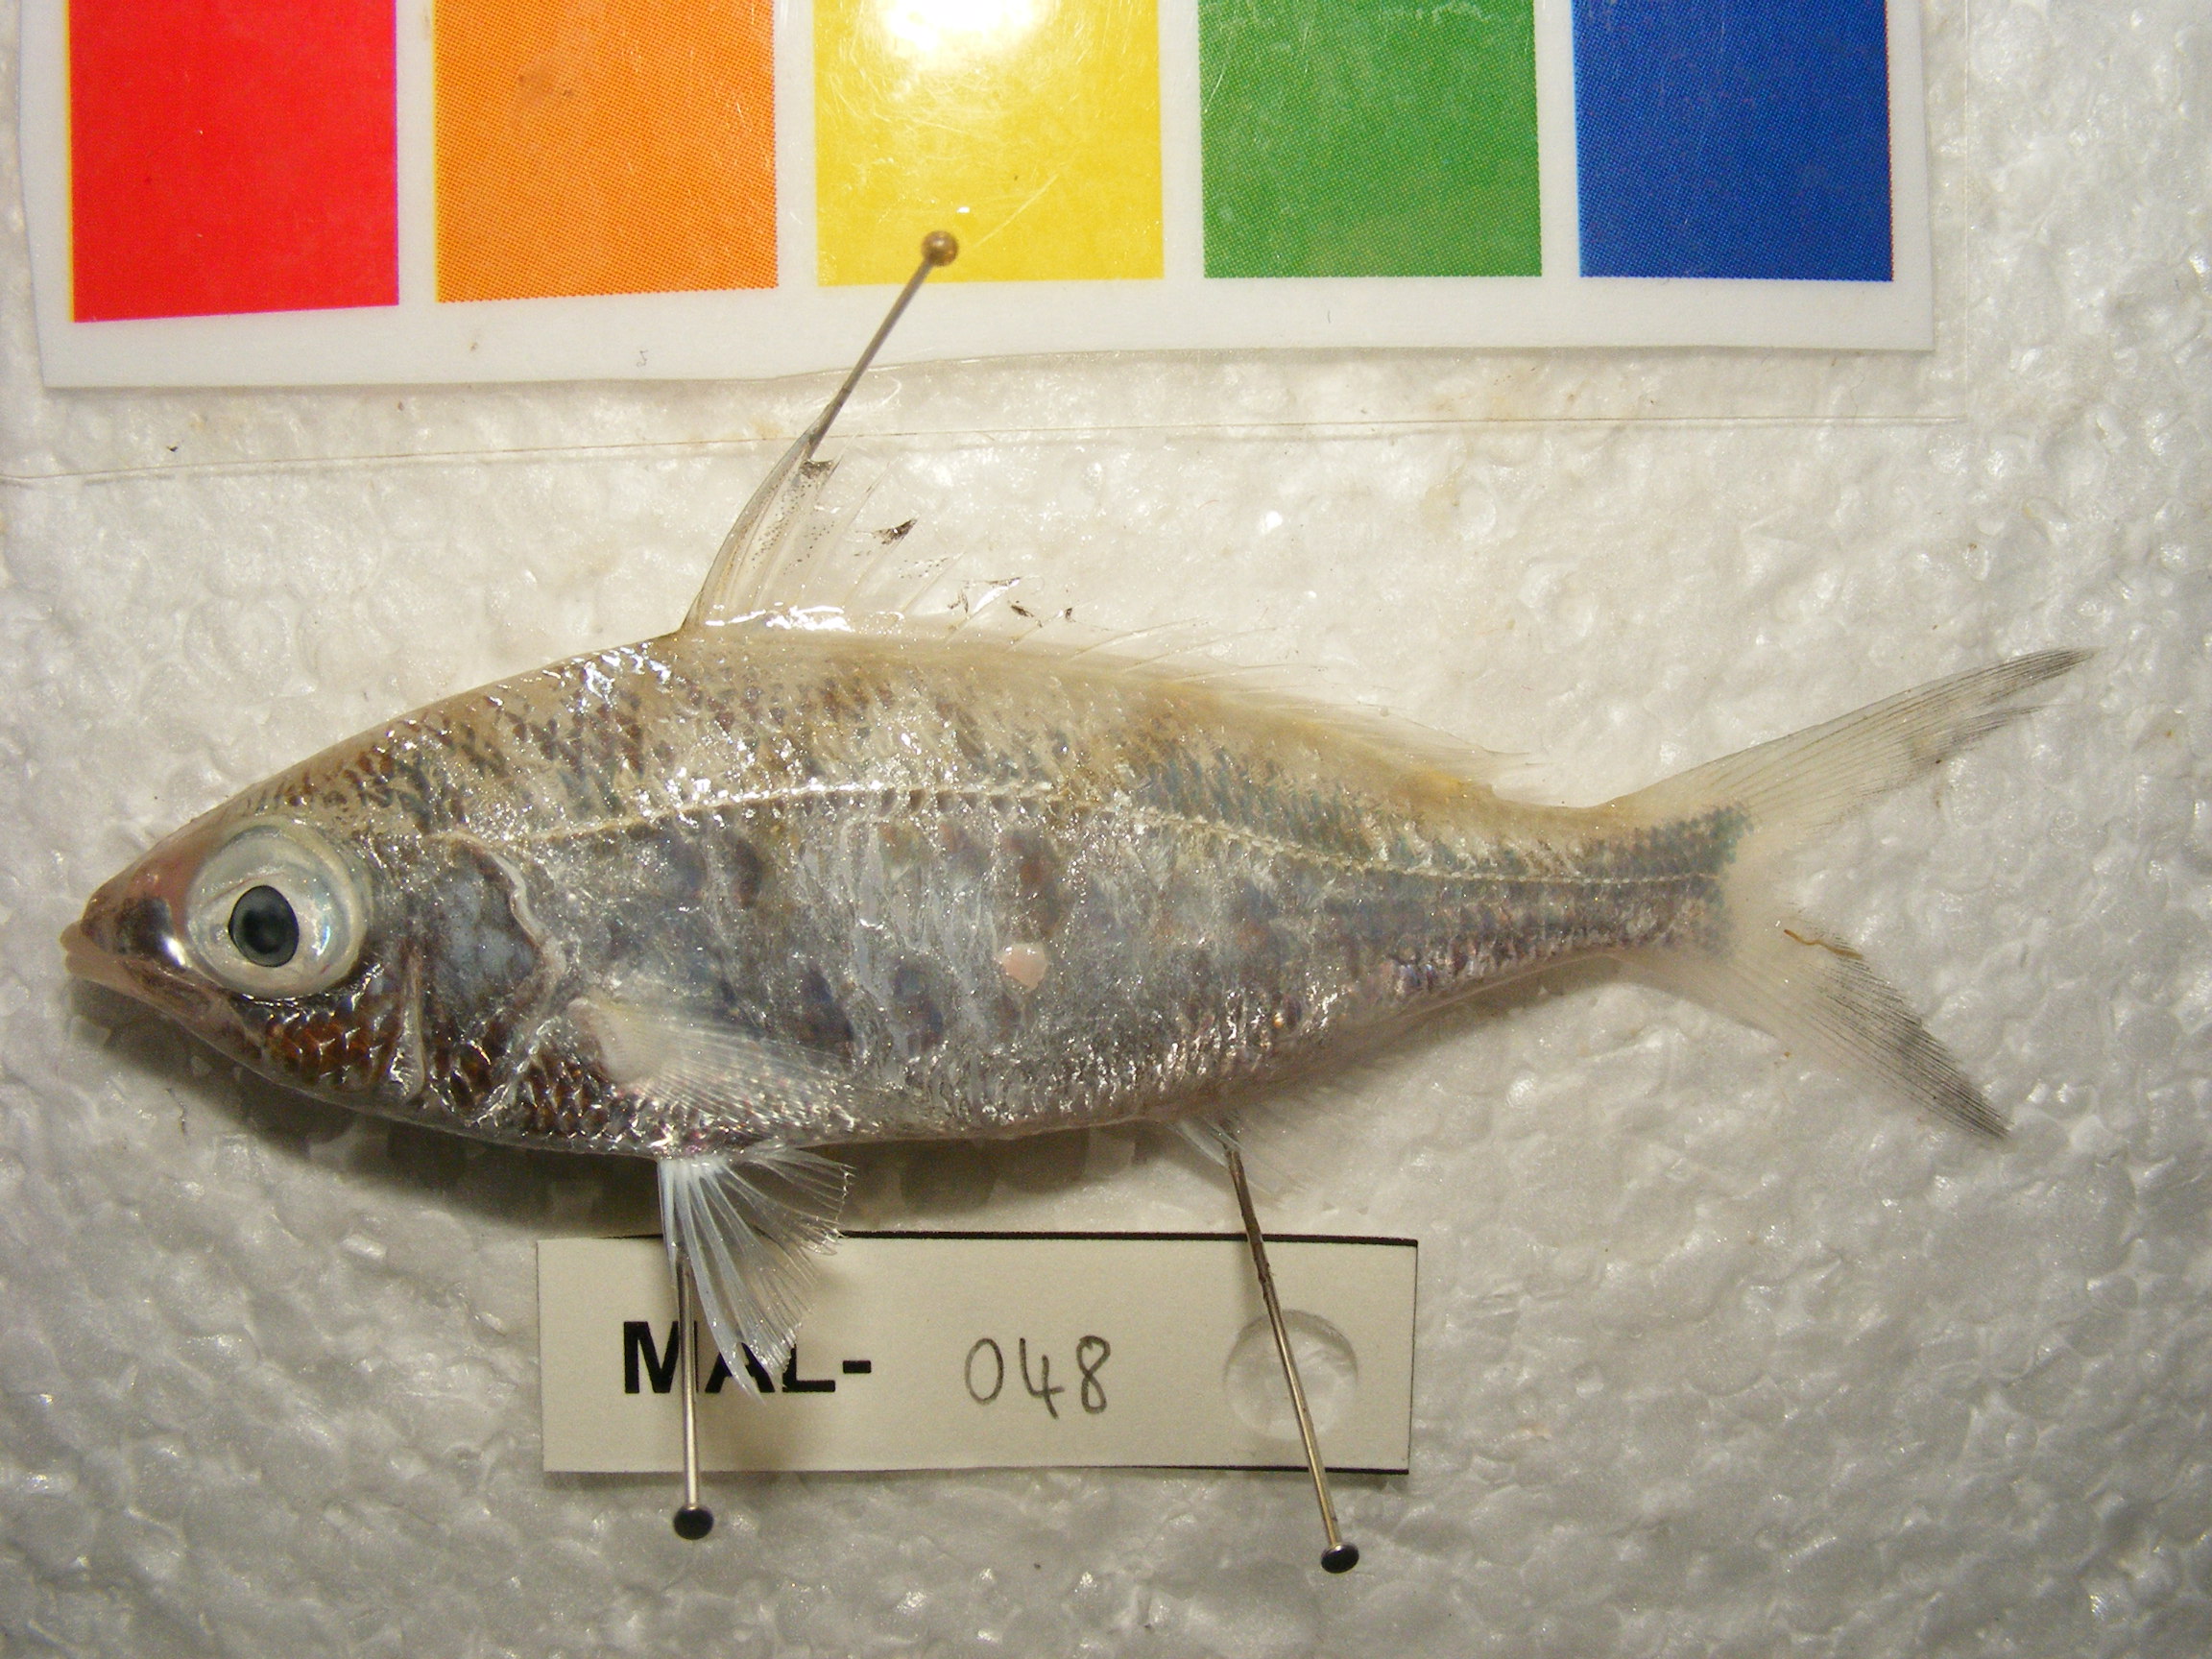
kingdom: Animalia
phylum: Chordata
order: Perciformes
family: Gerreidae
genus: Gerres
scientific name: Gerres oblongus
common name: Large-bodied silver-biddy
